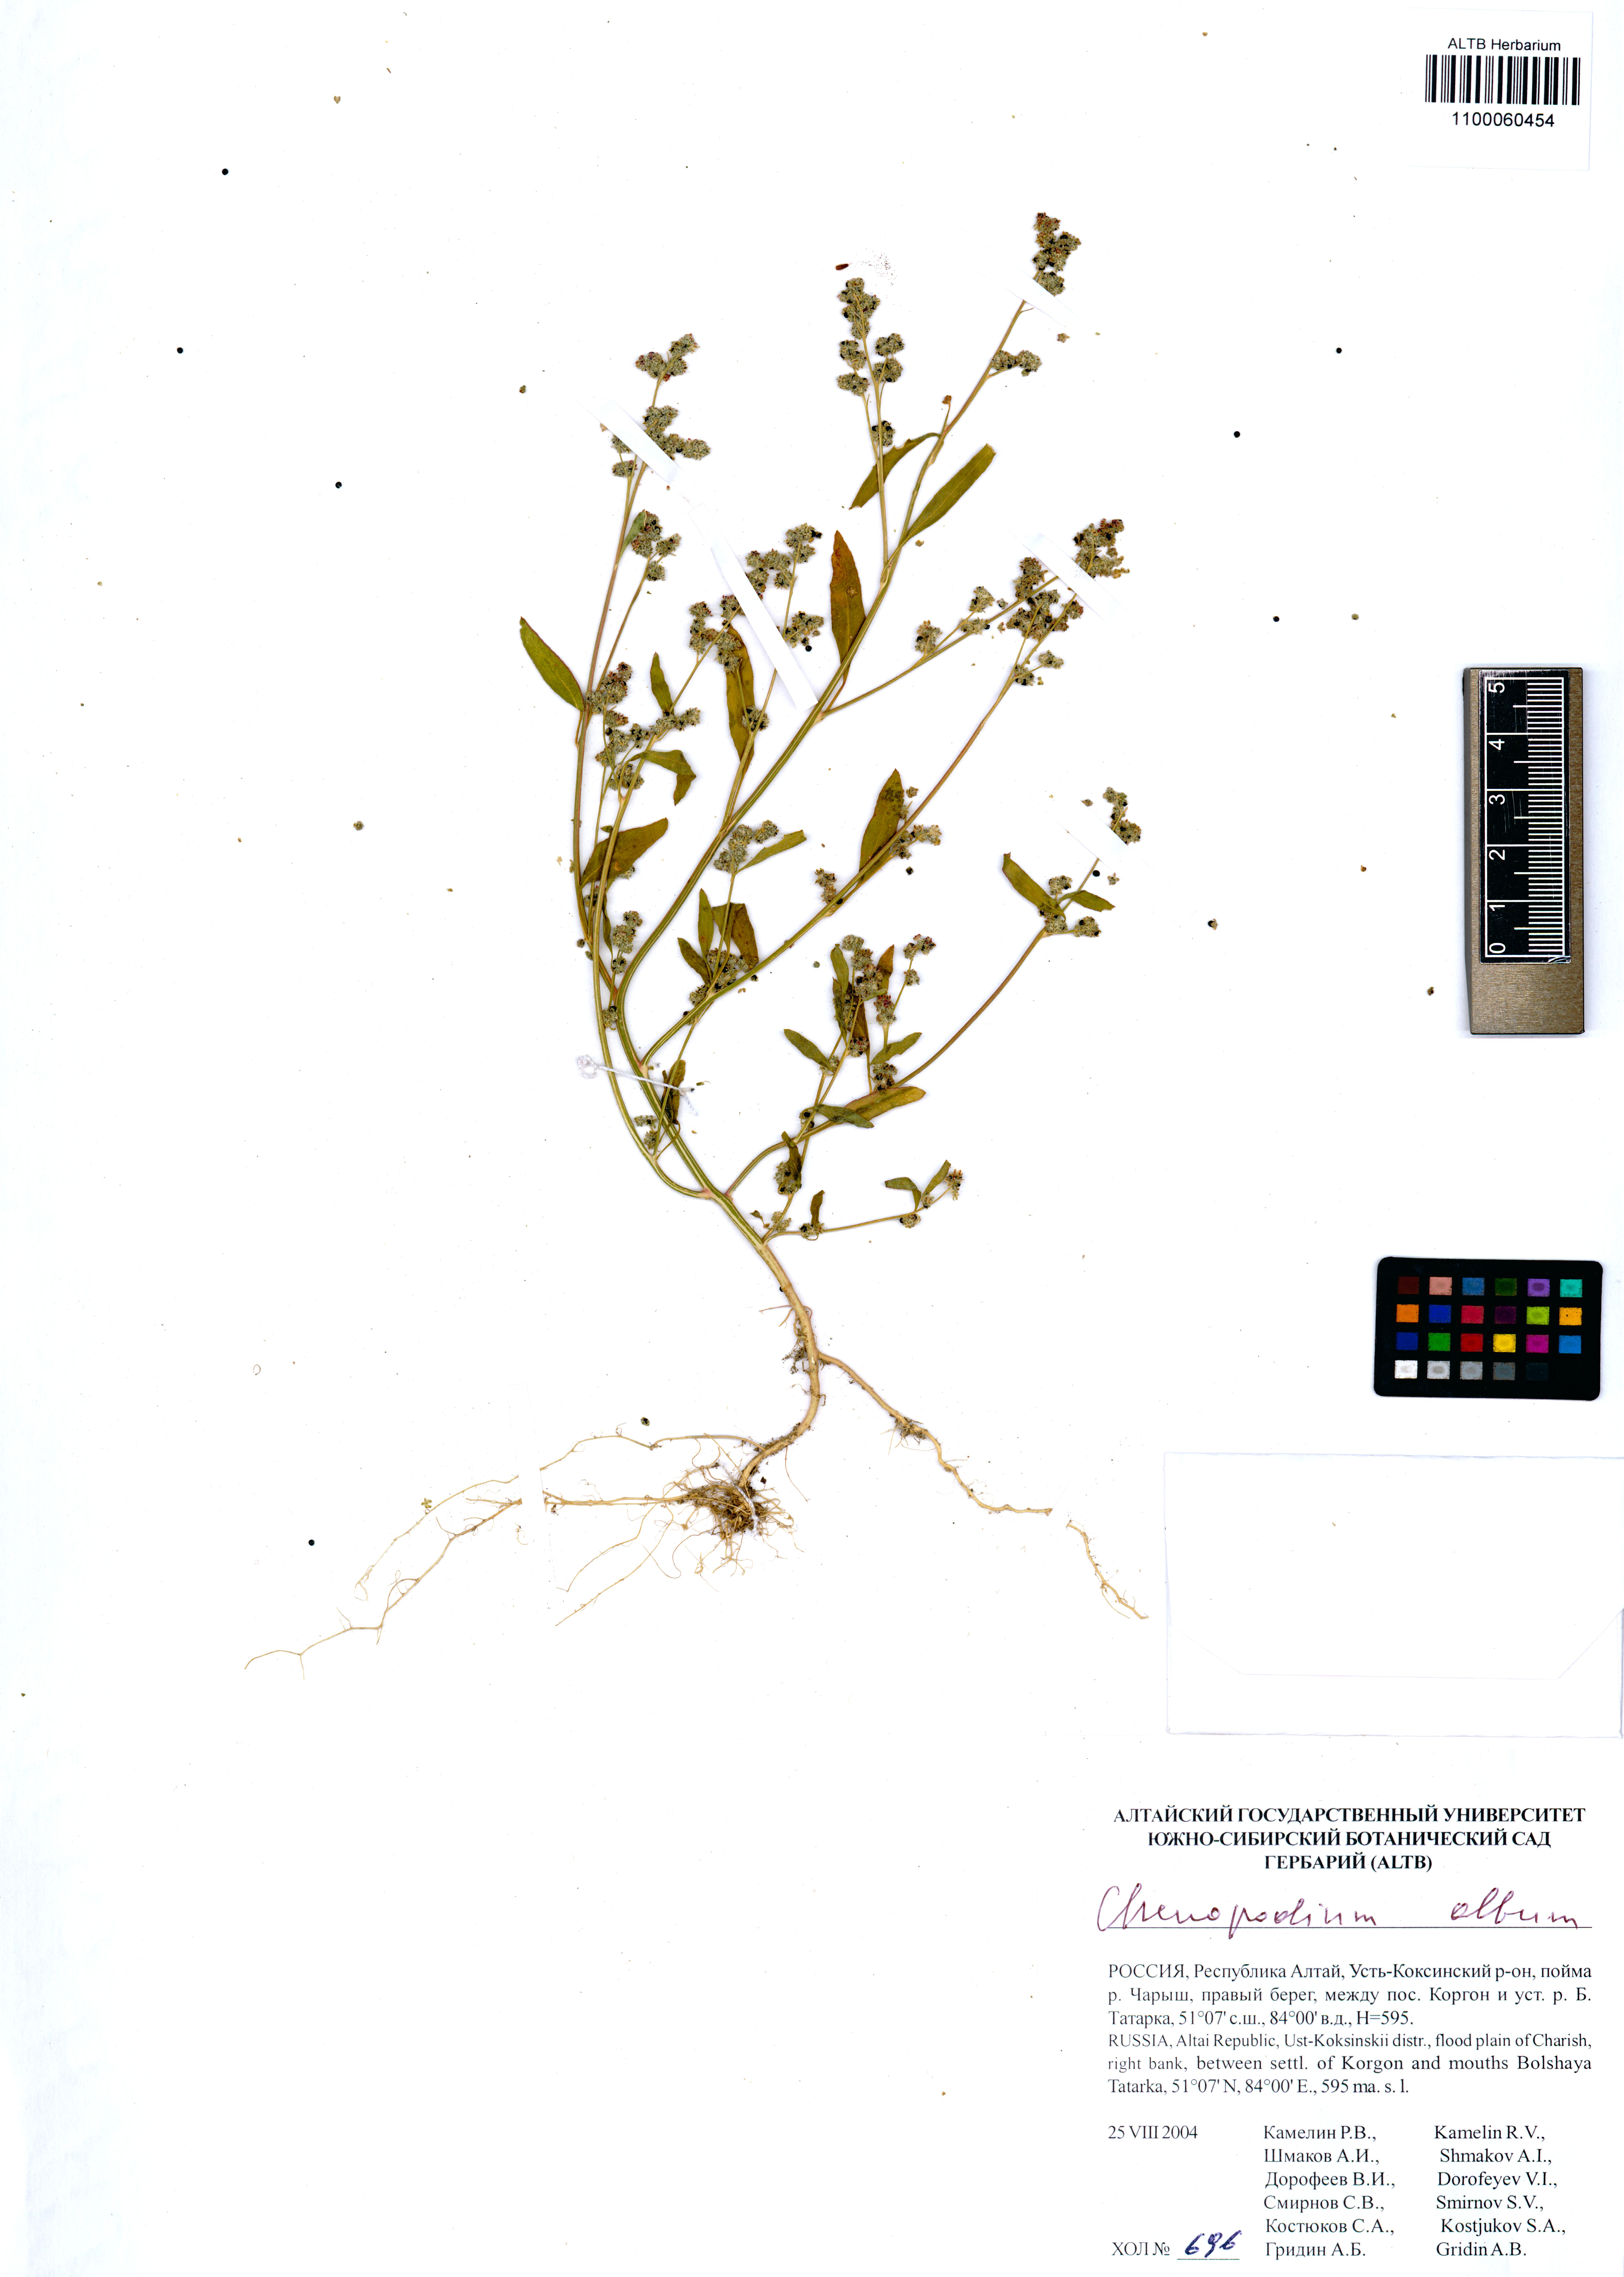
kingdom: Plantae
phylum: Tracheophyta
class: Magnoliopsida
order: Caryophyllales
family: Amaranthaceae
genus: Chenopodium
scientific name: Chenopodium album
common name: Fat-hen
